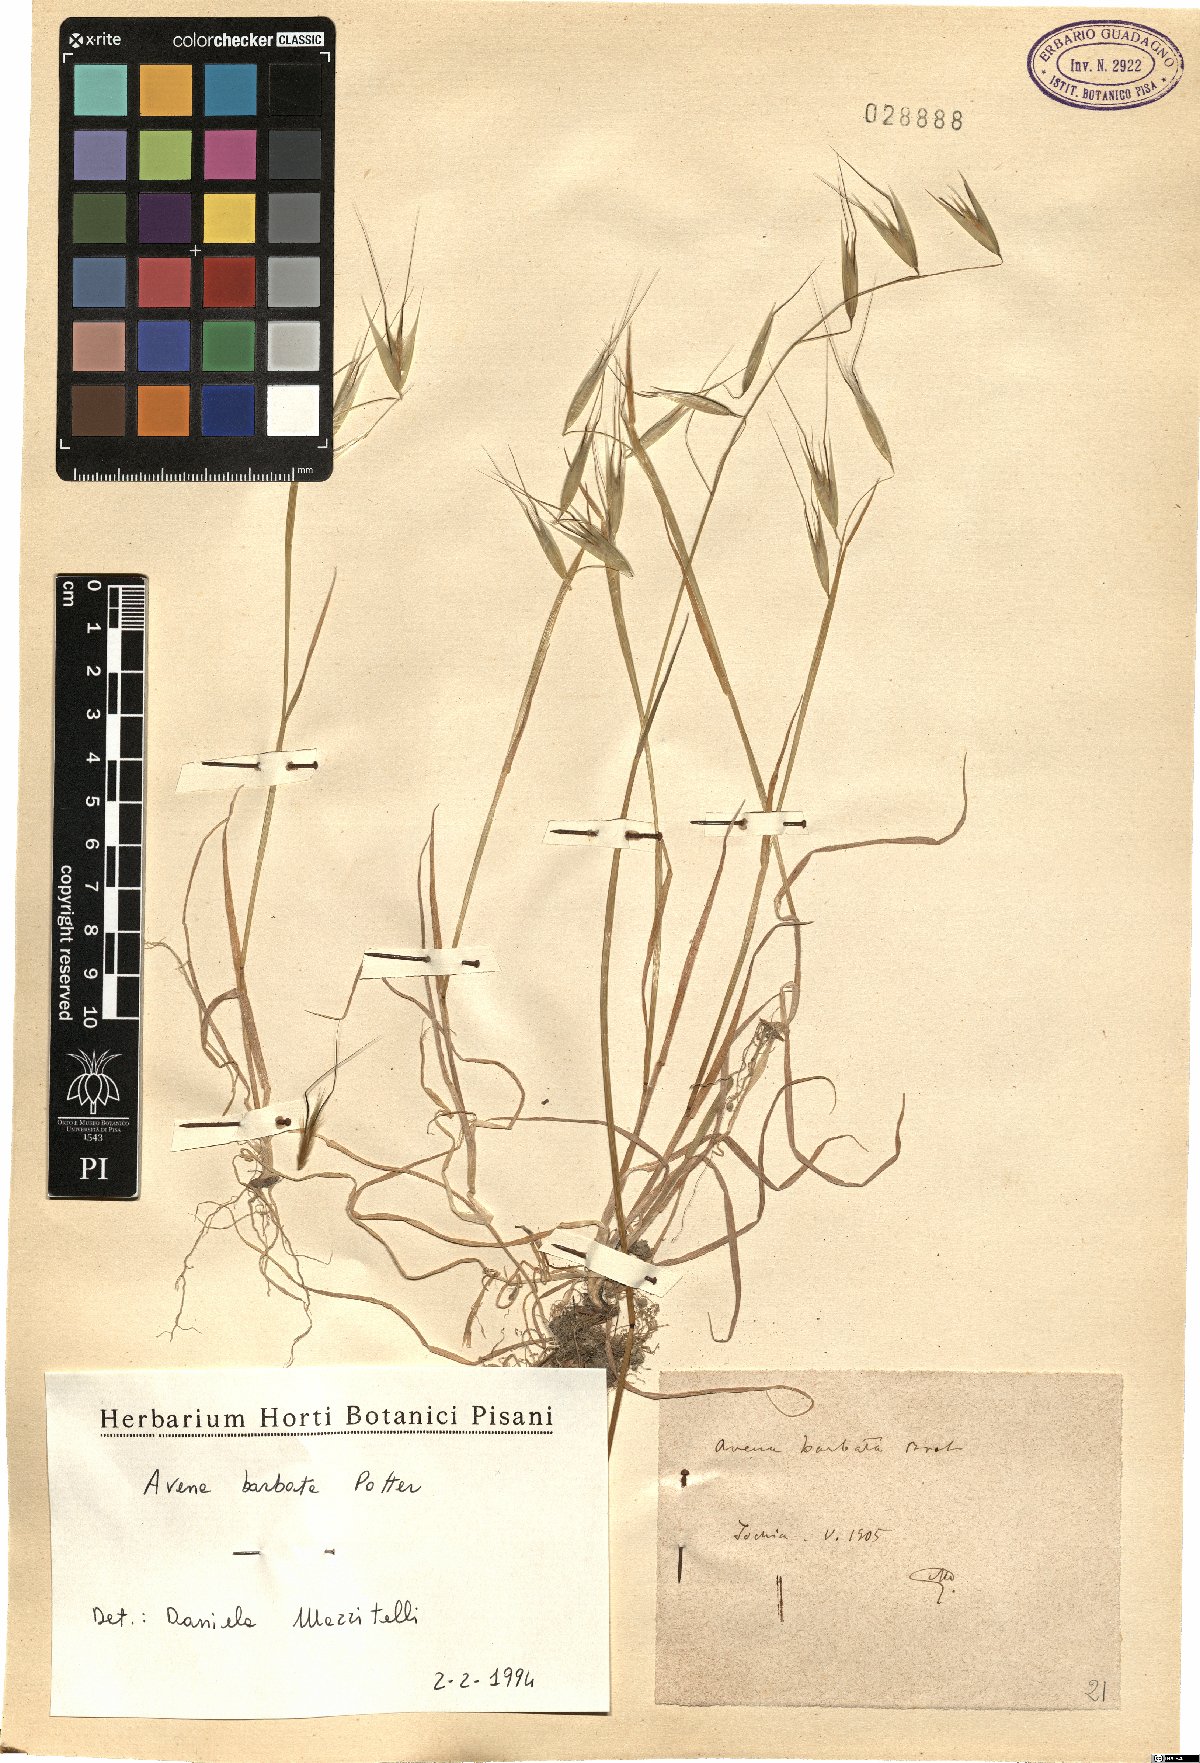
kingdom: Plantae
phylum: Tracheophyta
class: Liliopsida
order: Poales
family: Poaceae
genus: Avena
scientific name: Avena barbata
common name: Slender oat
